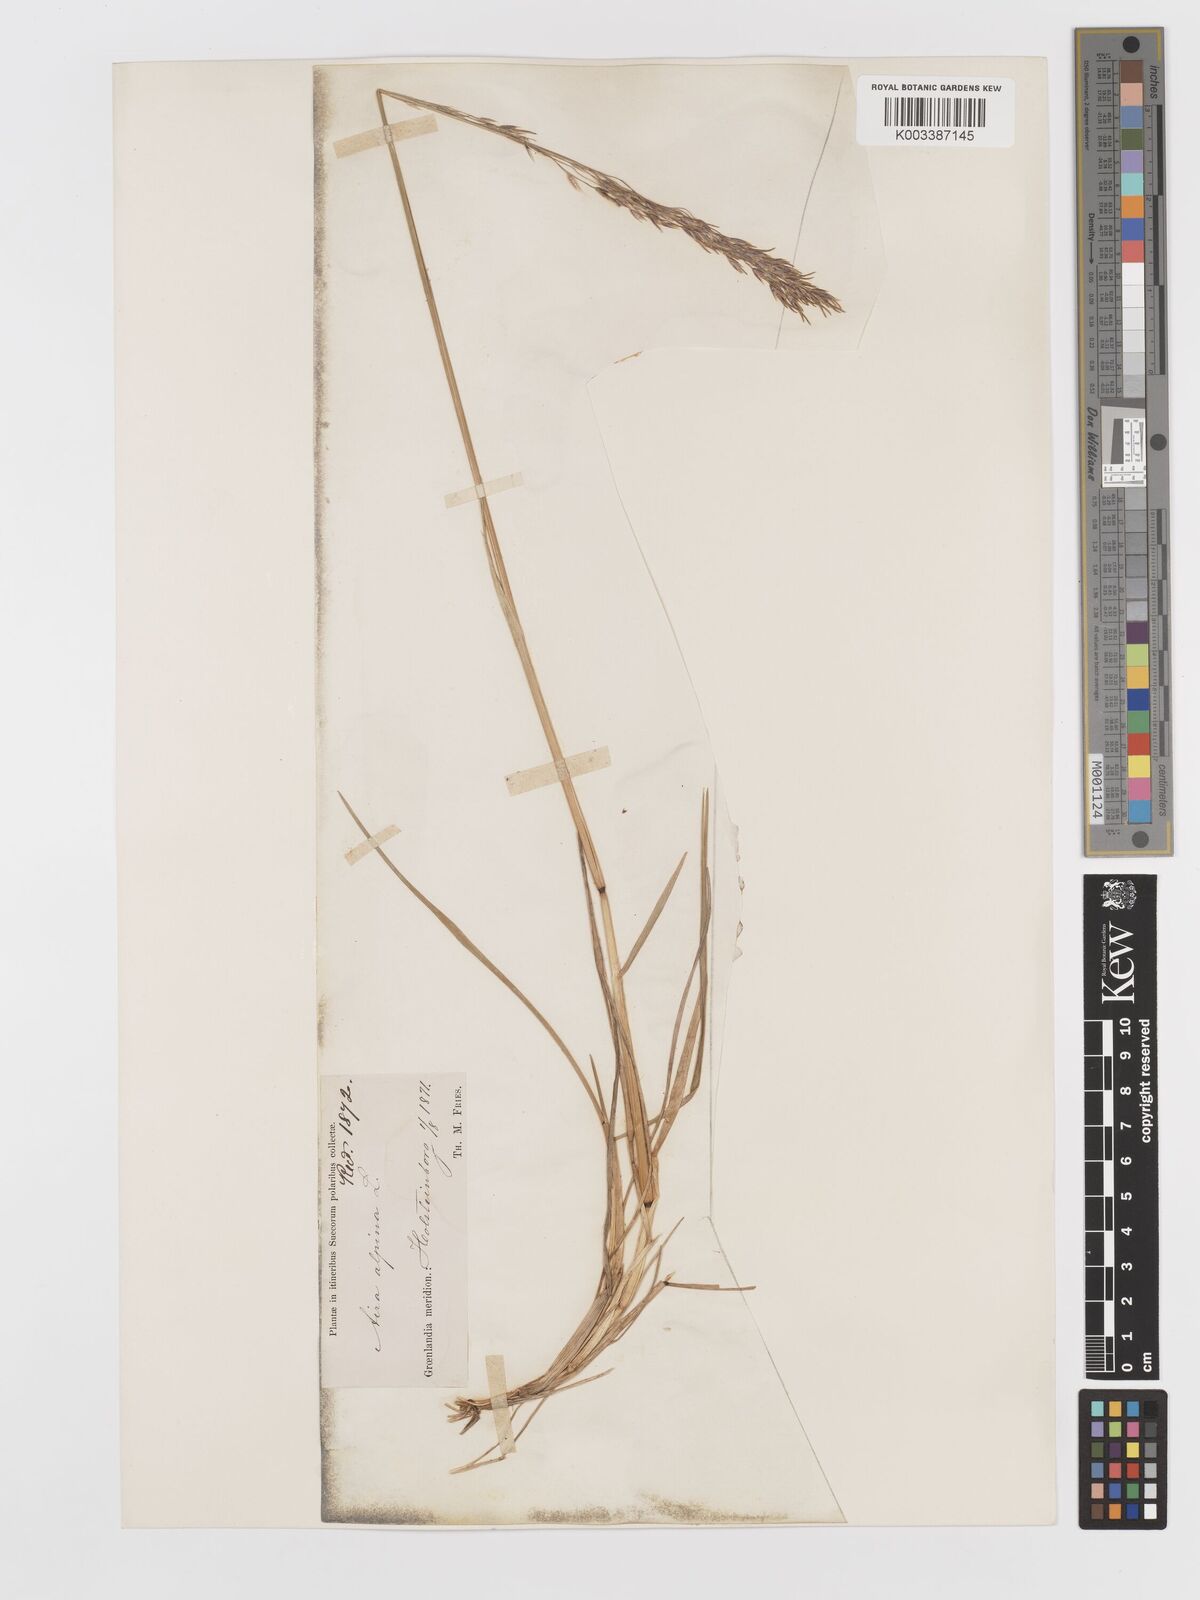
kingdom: Plantae
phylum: Tracheophyta
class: Liliopsida
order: Poales
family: Poaceae
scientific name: Poaceae
